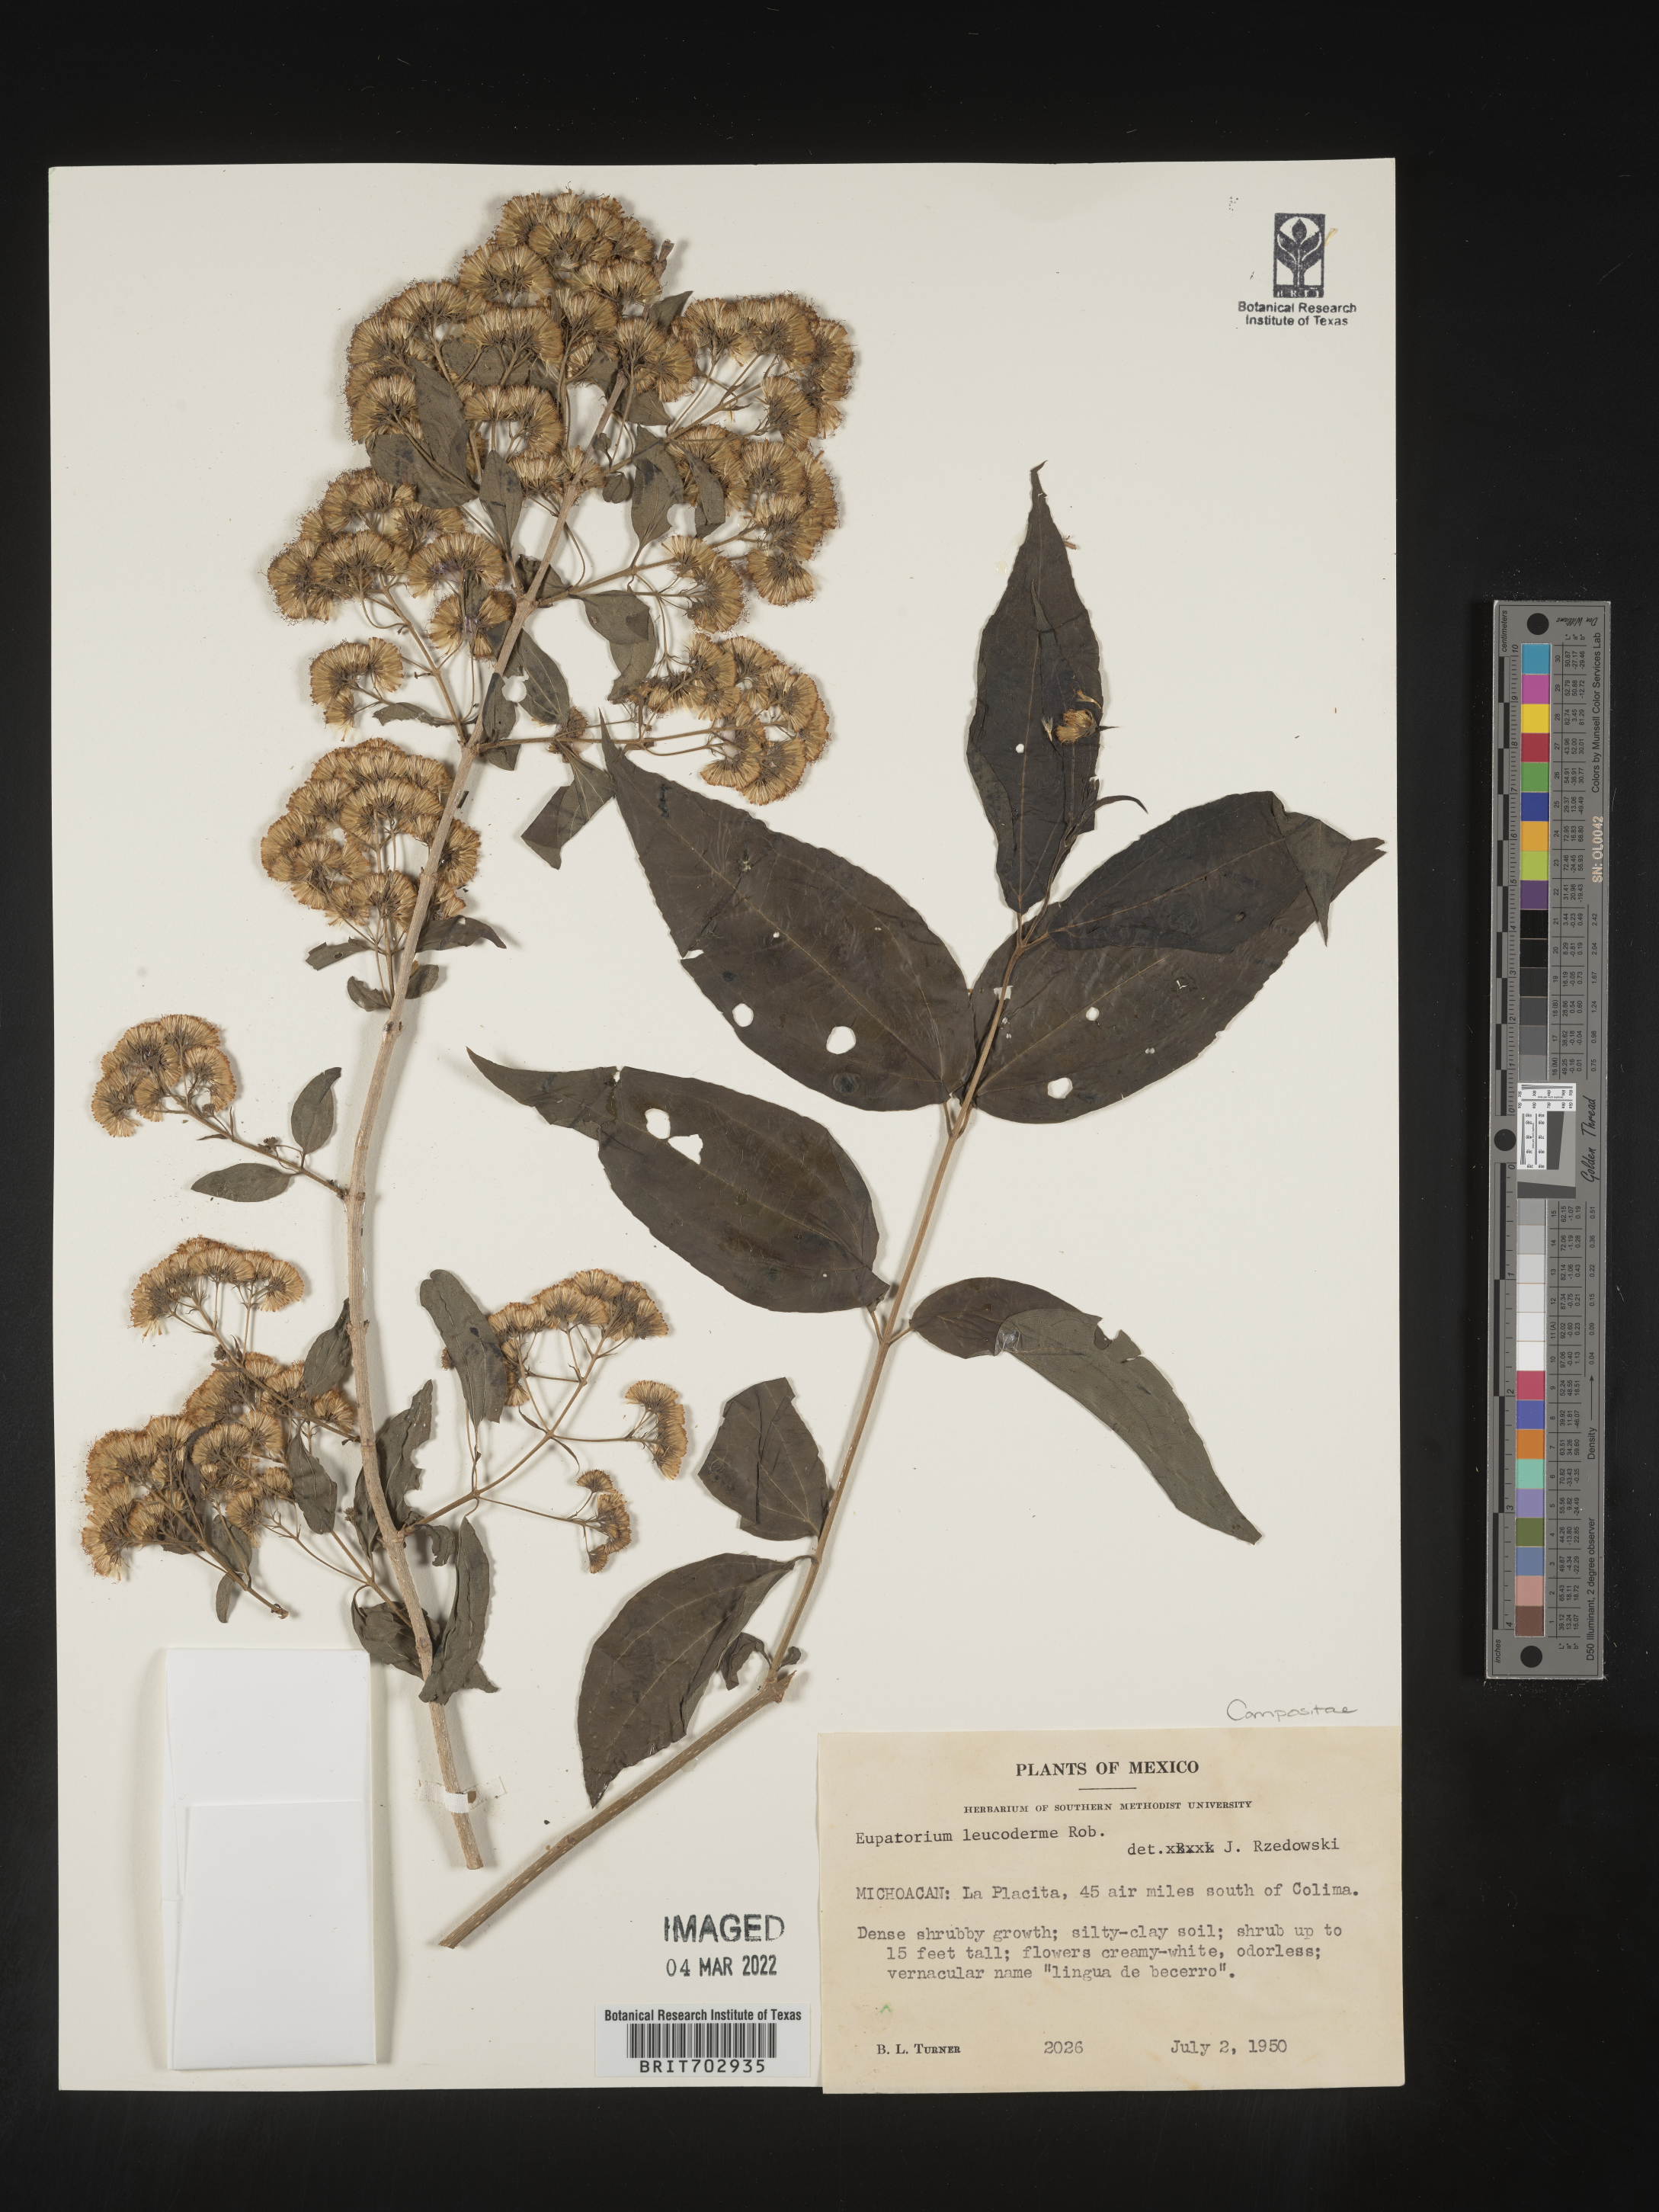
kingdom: Plantae
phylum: Tracheophyta
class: Magnoliopsida
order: Asterales
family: Asteraceae
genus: Eupatorium
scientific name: Eupatorium
